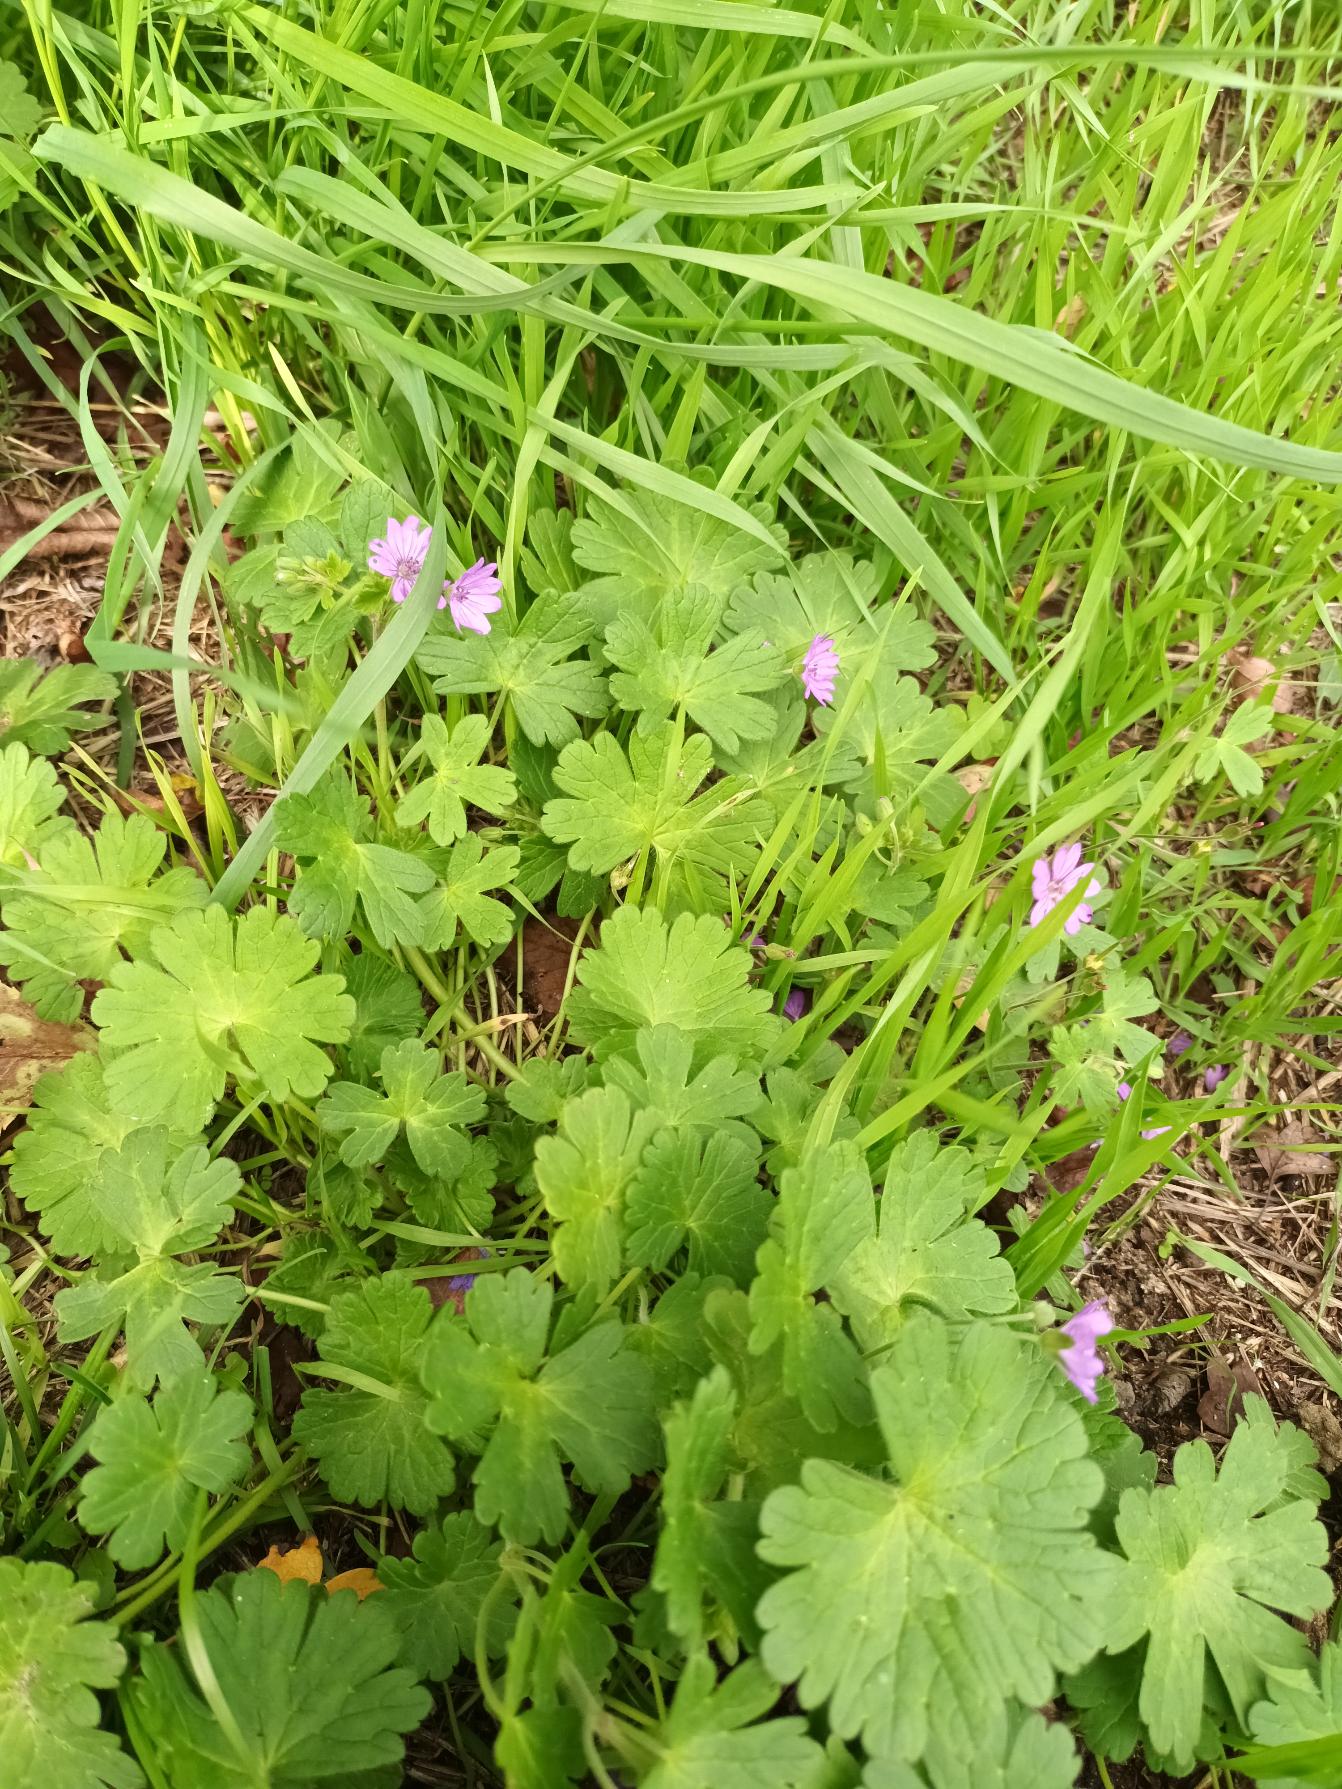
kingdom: Plantae
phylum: Tracheophyta
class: Magnoliopsida
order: Geraniales
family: Geraniaceae
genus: Geranium
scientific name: Geranium pyrenaicum
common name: Pyrenæisk storkenæb
